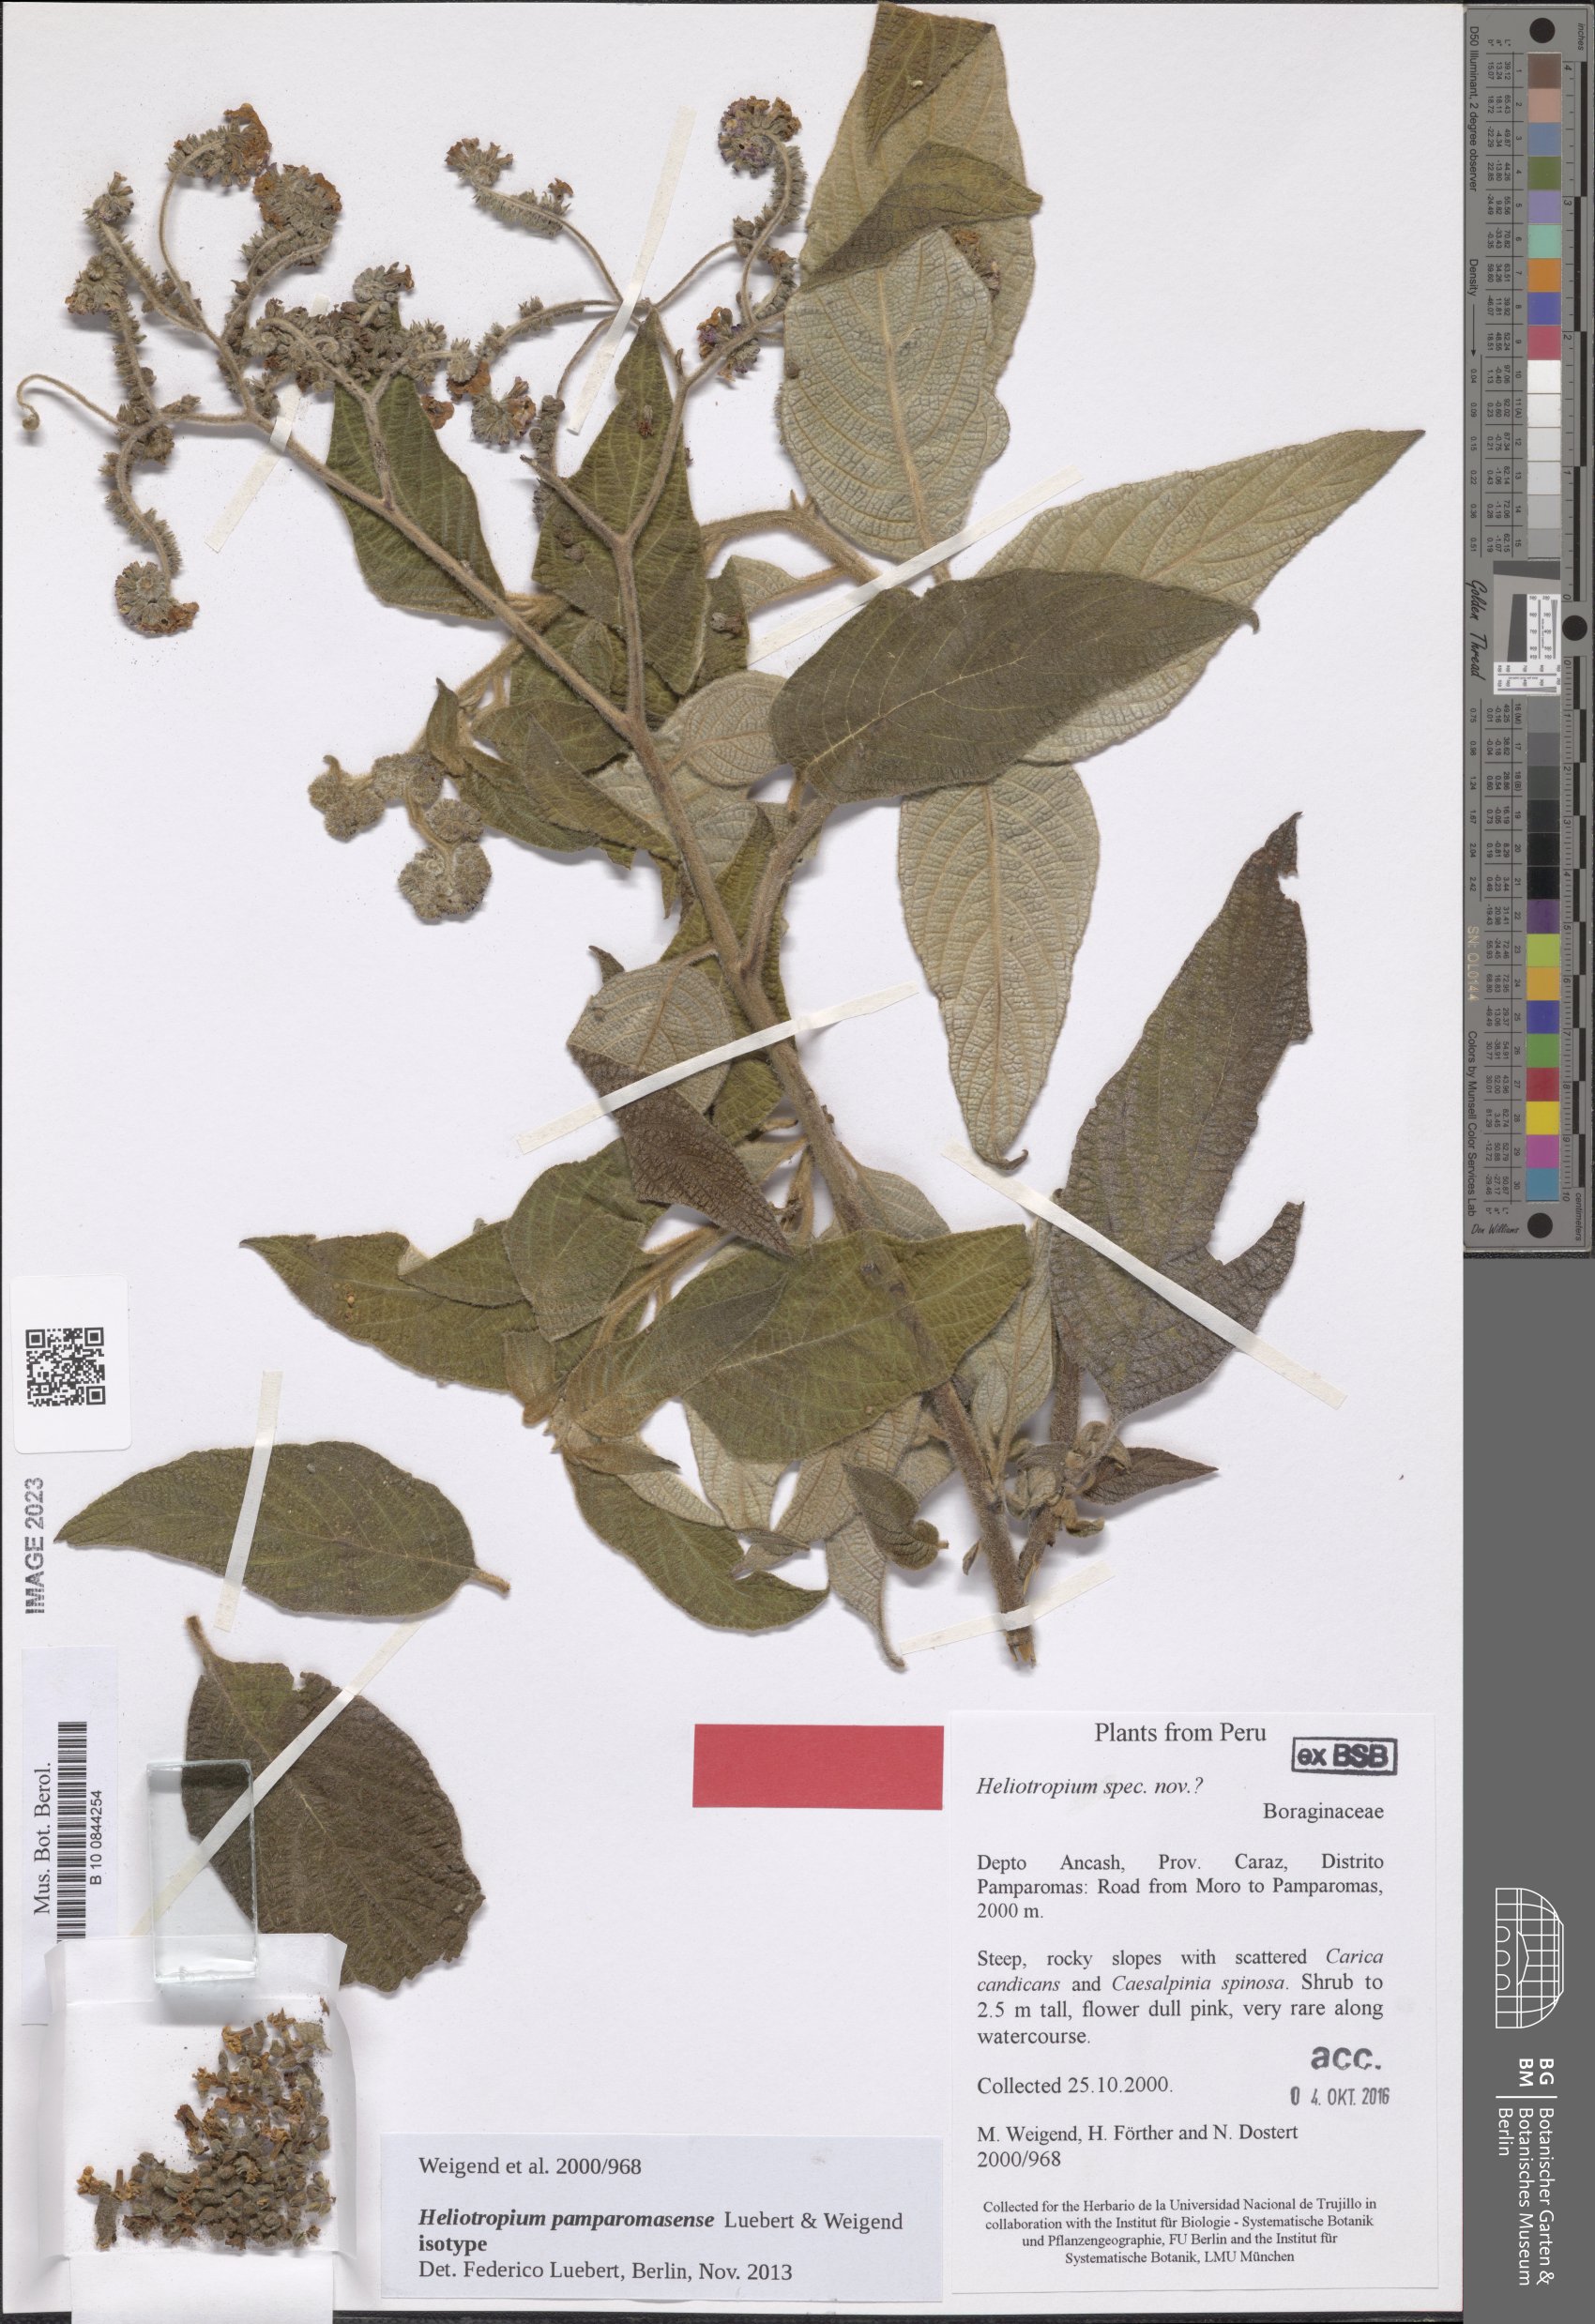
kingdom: Plantae
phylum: Tracheophyta
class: Magnoliopsida
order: Boraginales
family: Heliotropiaceae
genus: Heliotropium
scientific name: Heliotropium pamparomasense
